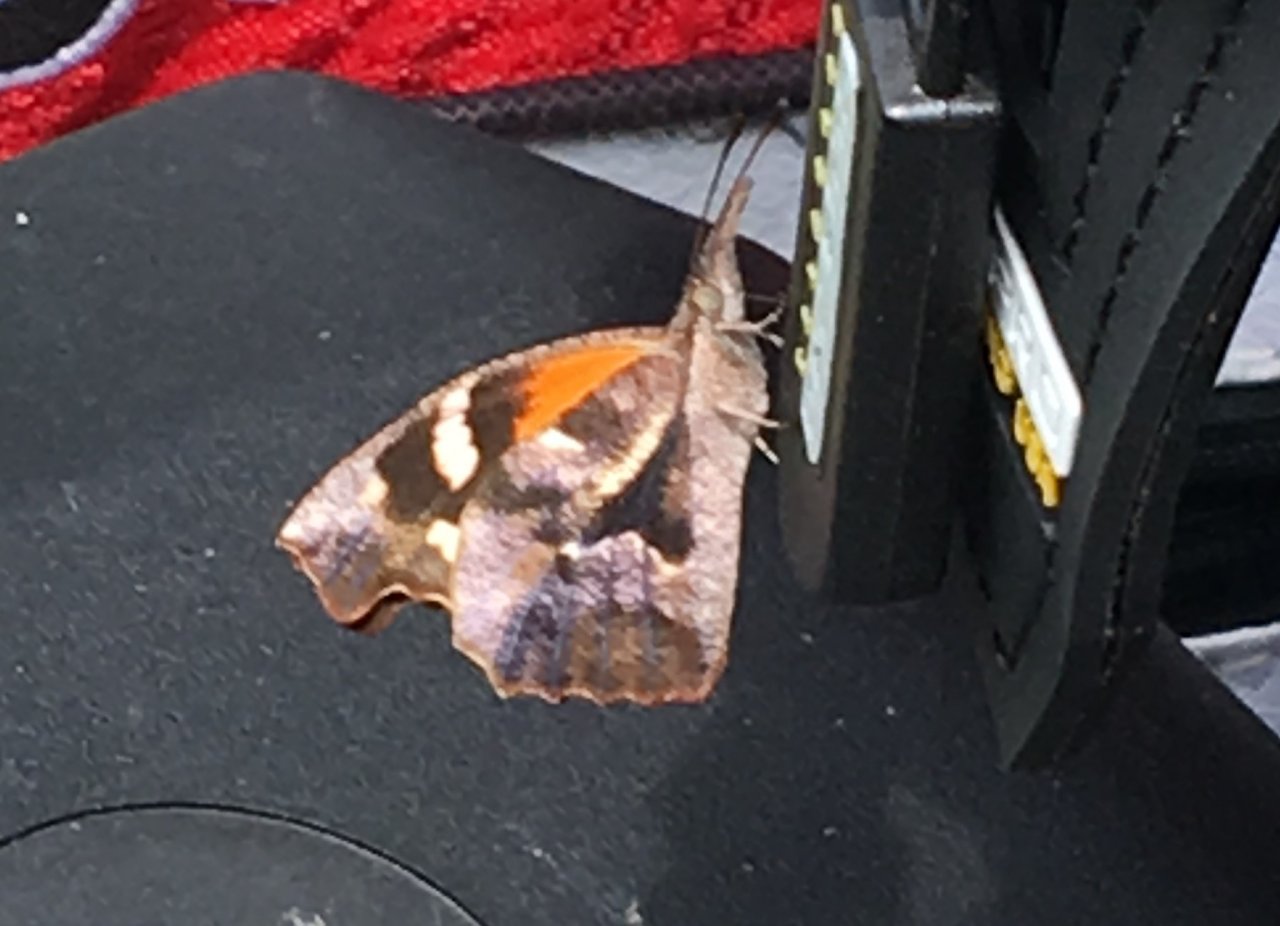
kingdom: Animalia
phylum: Arthropoda
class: Insecta
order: Lepidoptera
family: Nymphalidae
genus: Libytheana
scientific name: Libytheana carinenta
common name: American Snout
